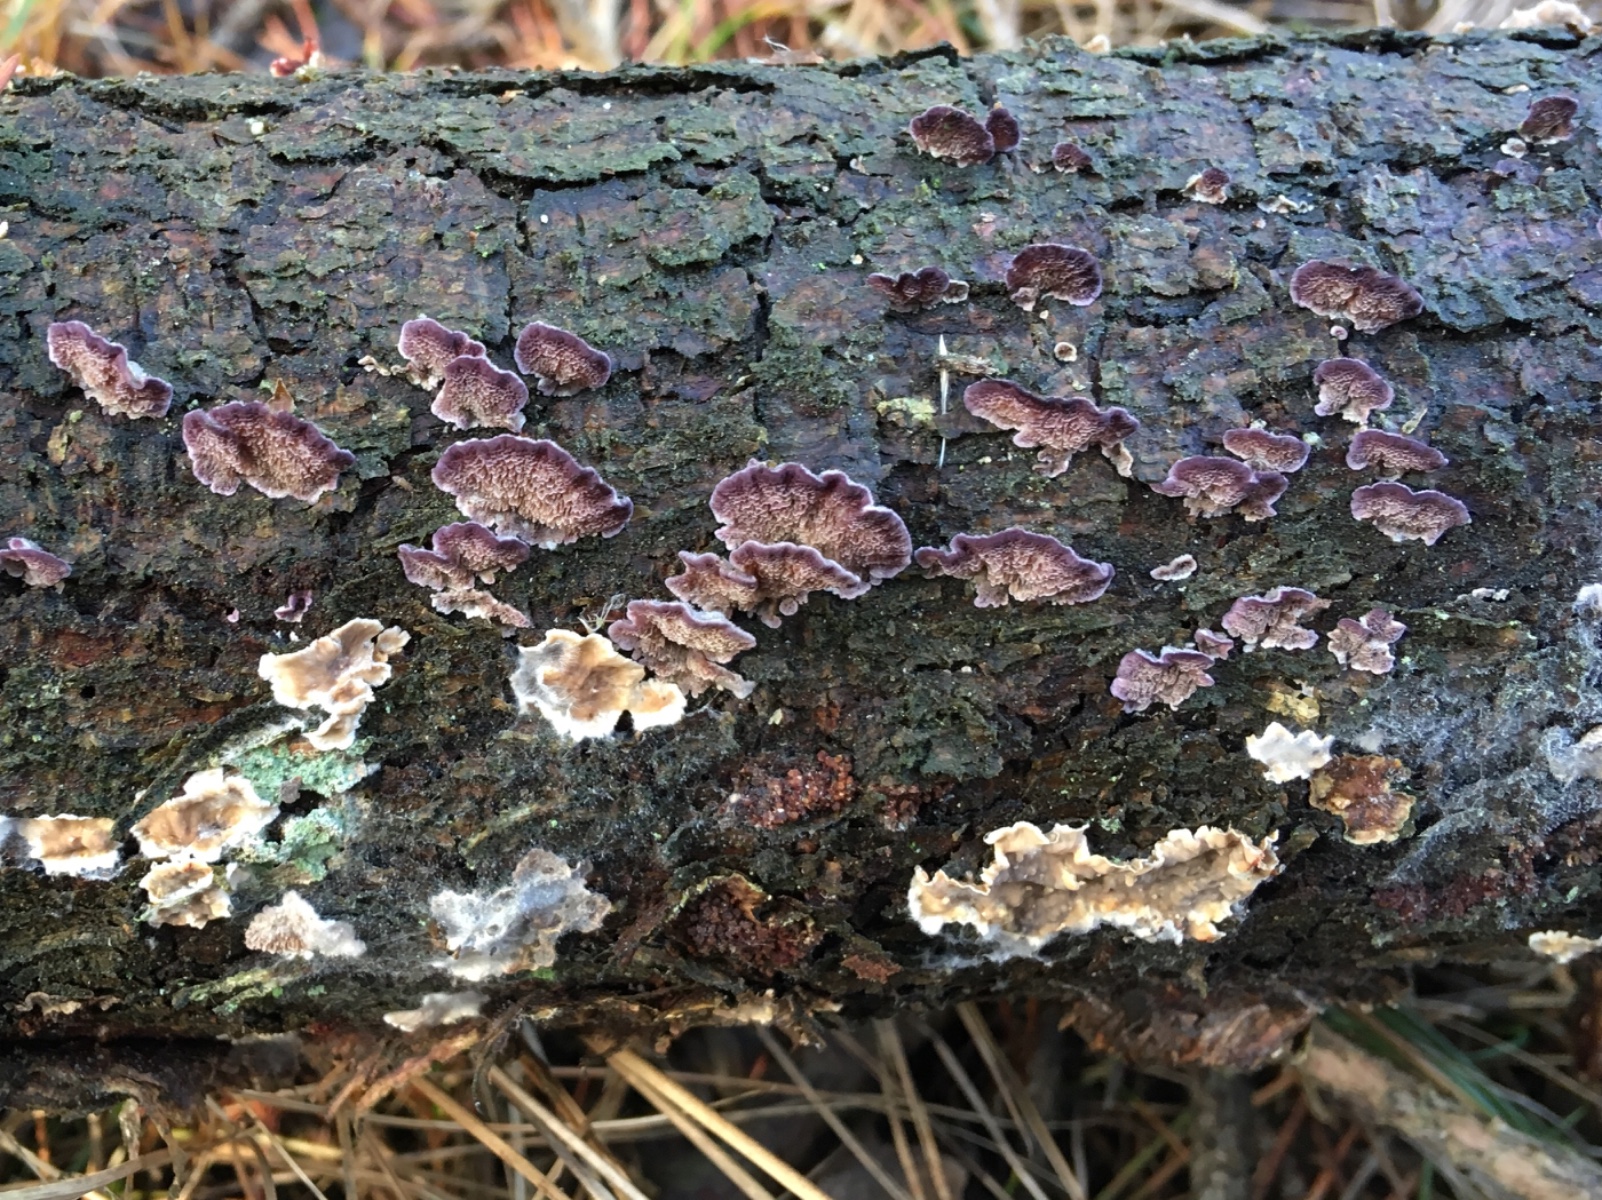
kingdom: Fungi
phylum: Basidiomycota
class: Agaricomycetes
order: Hymenochaetales
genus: Trichaptum
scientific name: Trichaptum abietinum
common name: almindelig violporesvamp
